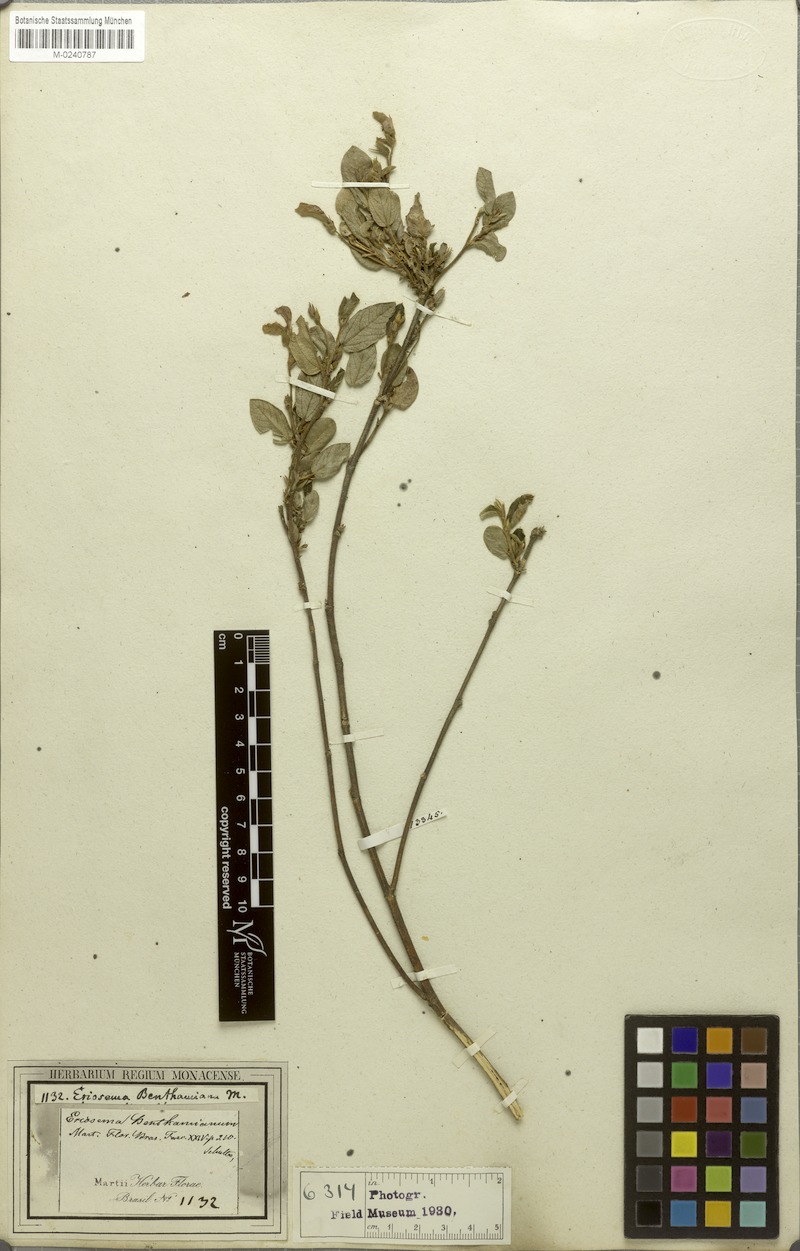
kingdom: Plantae
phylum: Tracheophyta
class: Magnoliopsida
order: Fabales
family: Fabaceae
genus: Eriosema
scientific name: Eriosema benthamianum
